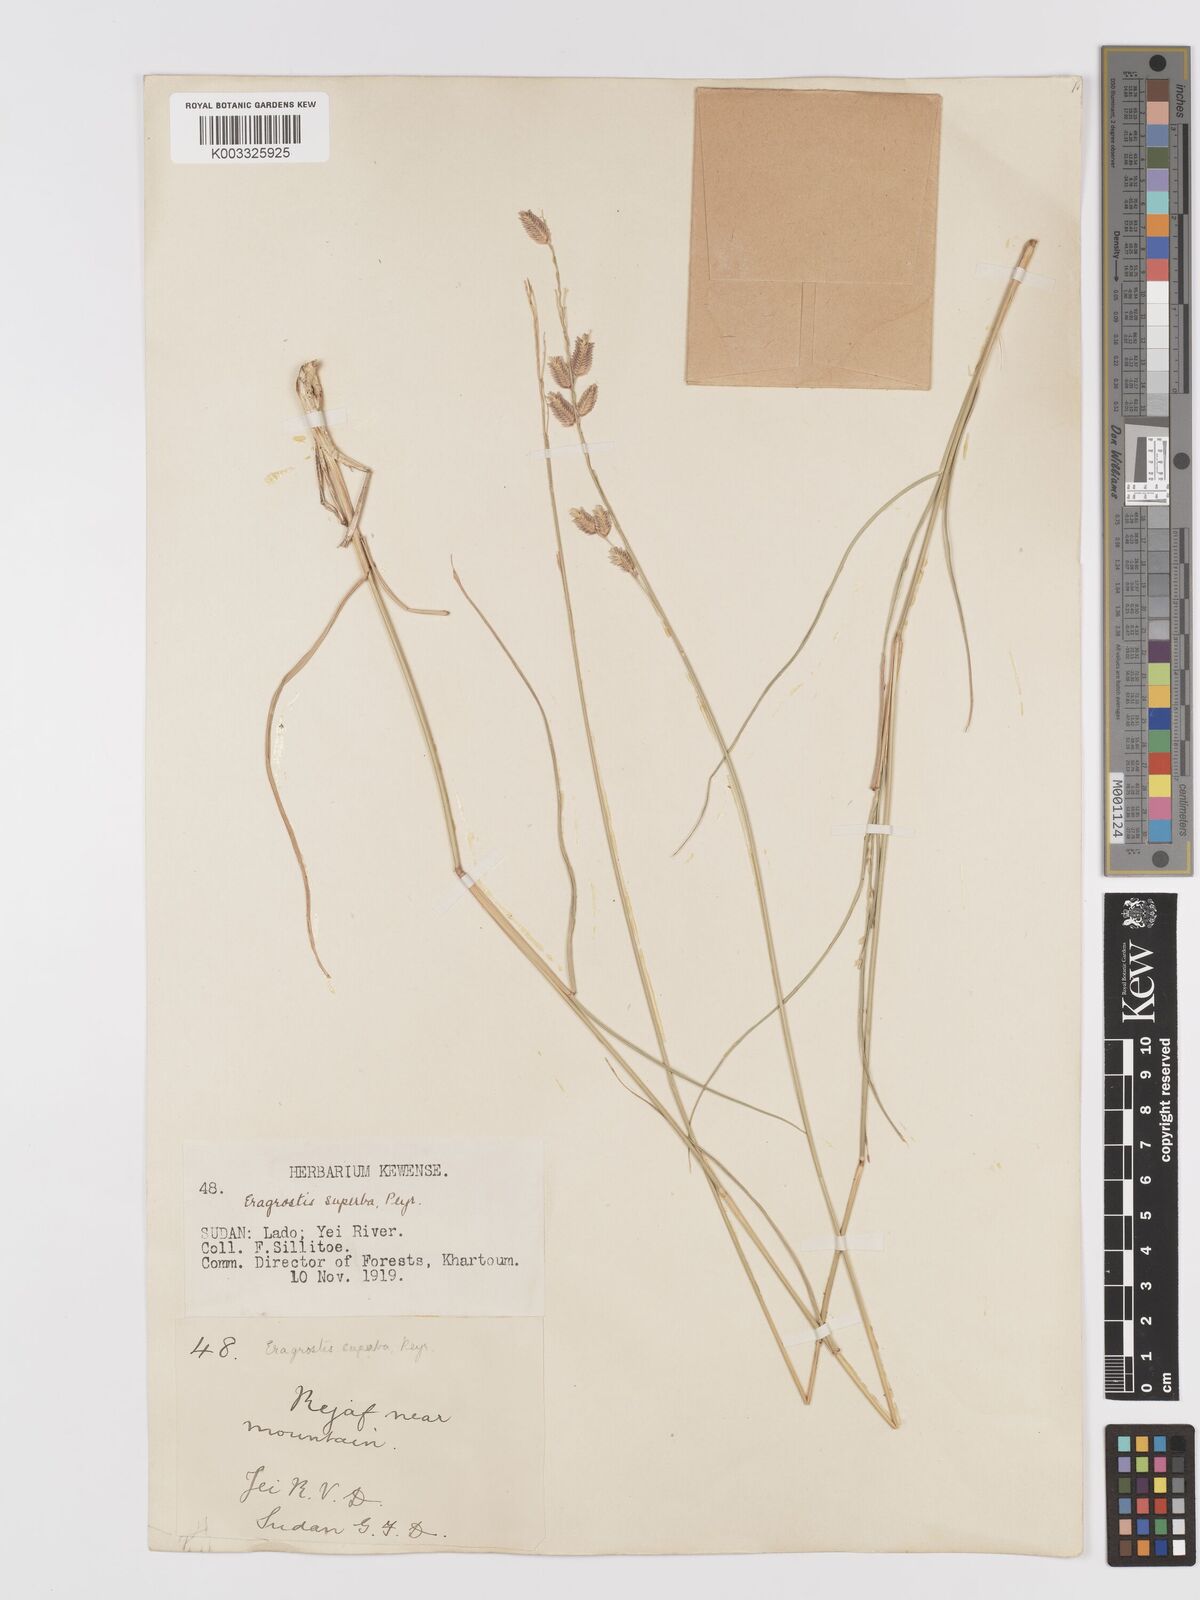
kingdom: Plantae
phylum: Tracheophyta
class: Liliopsida
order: Poales
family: Poaceae
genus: Eragrostis
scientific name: Eragrostis superba
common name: Wilman lovegrass
